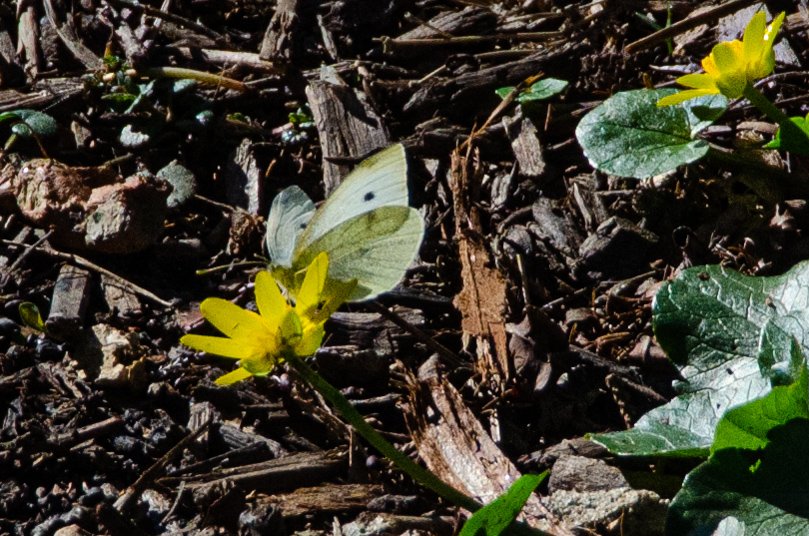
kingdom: Animalia
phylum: Arthropoda
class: Insecta
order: Lepidoptera
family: Pieridae
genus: Pieris
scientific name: Pieris rapae
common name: Cabbage White
